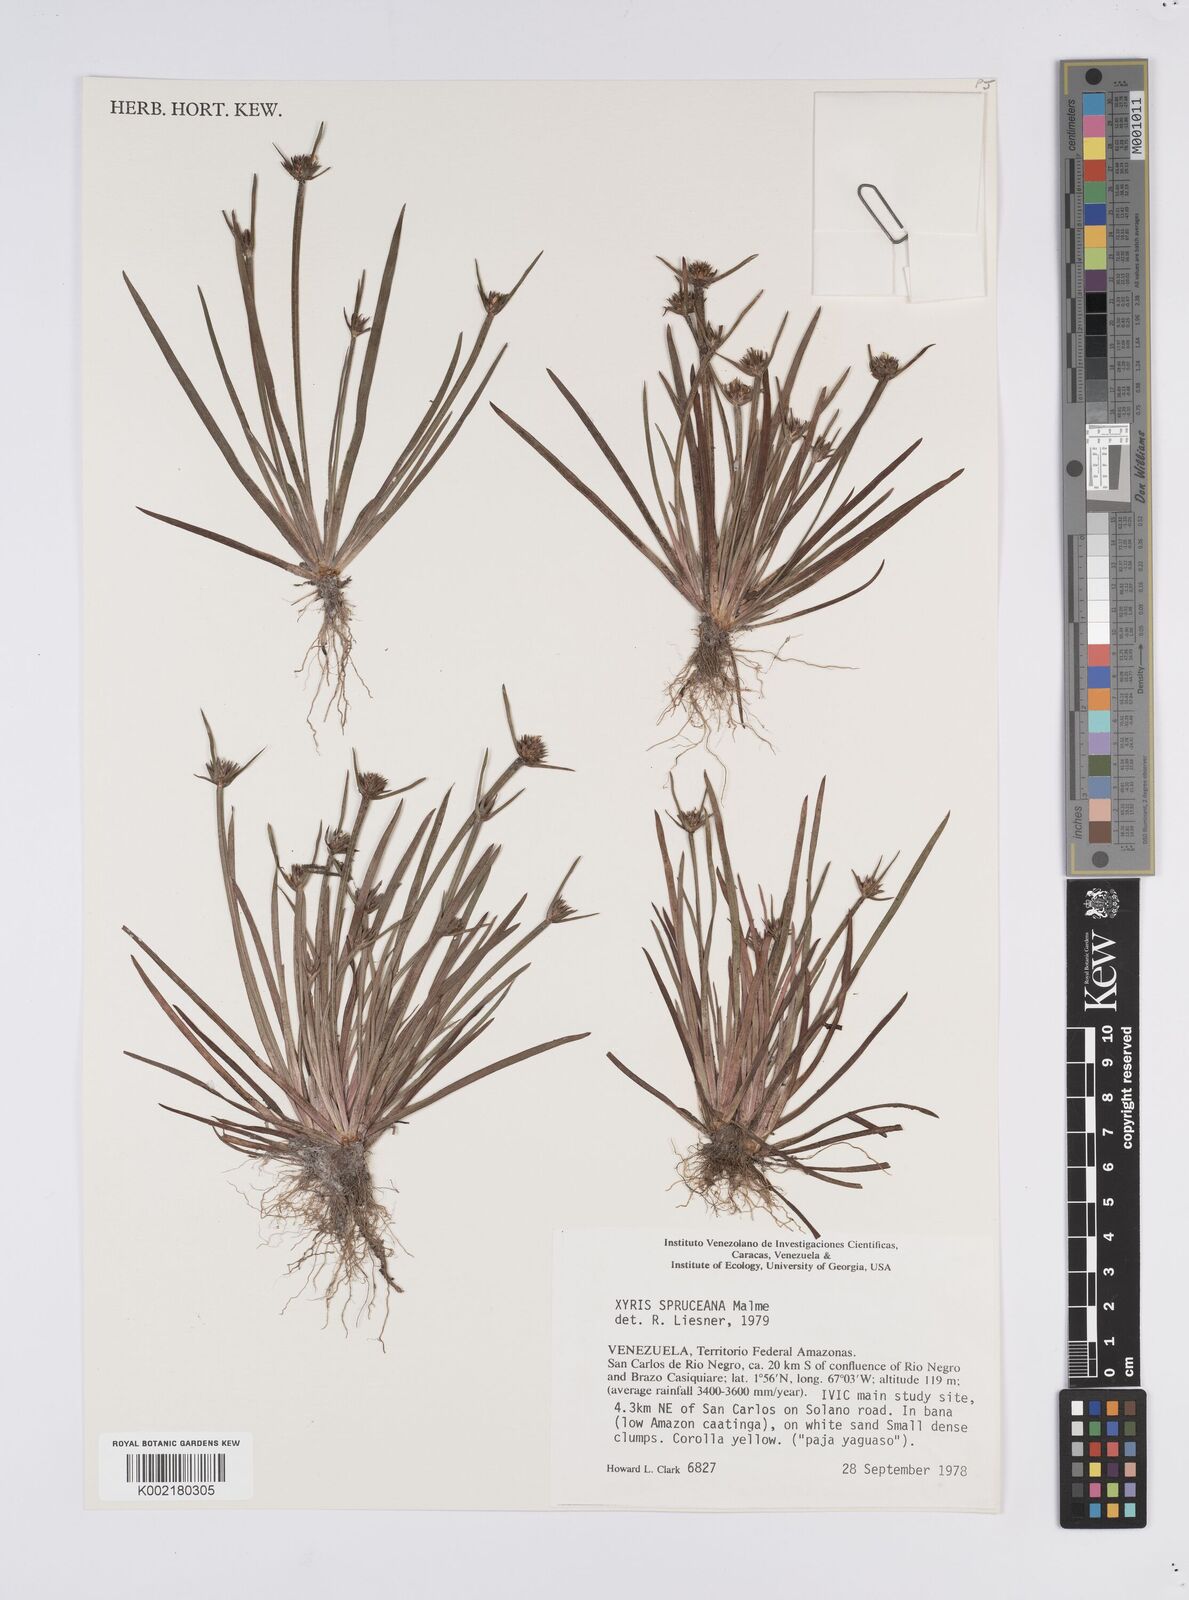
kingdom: Plantae
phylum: Tracheophyta
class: Liliopsida
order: Poales
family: Xyridaceae
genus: Xyris
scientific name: Xyris spruceana
